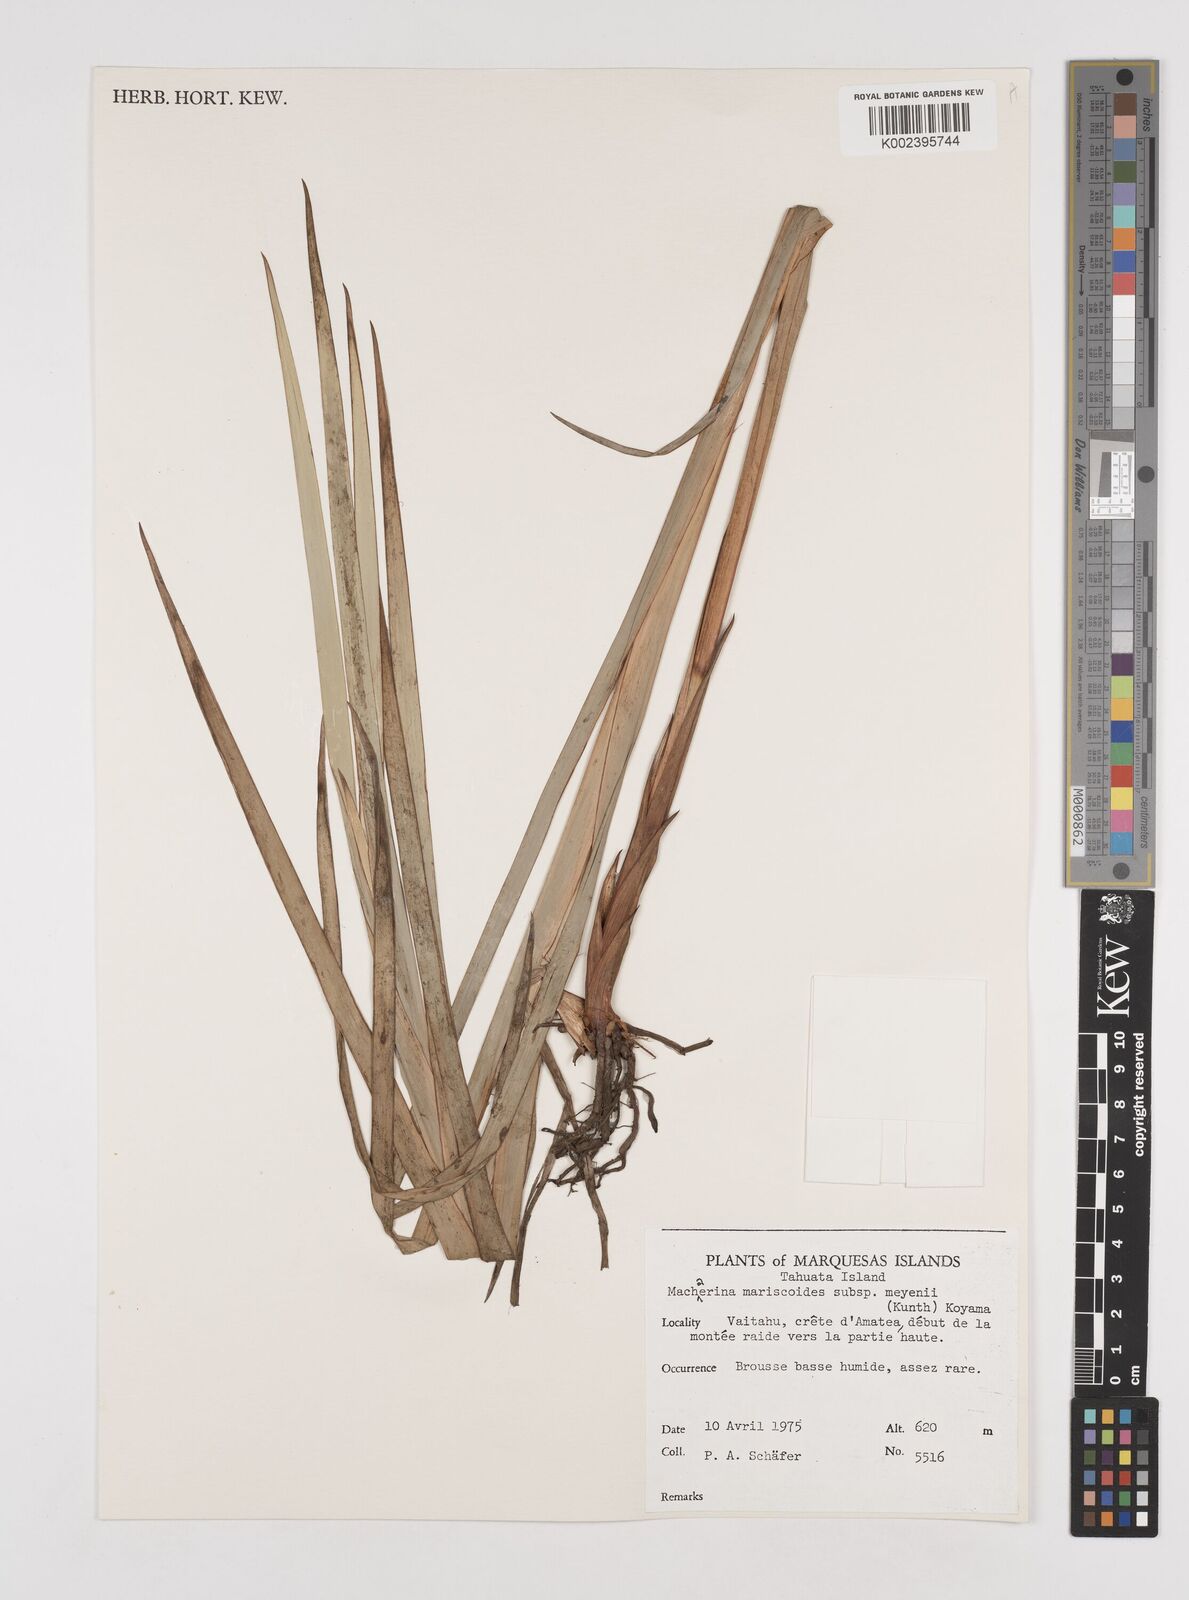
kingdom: Plantae
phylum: Tracheophyta
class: Liliopsida
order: Poales
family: Cyperaceae
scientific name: Cyperaceae
